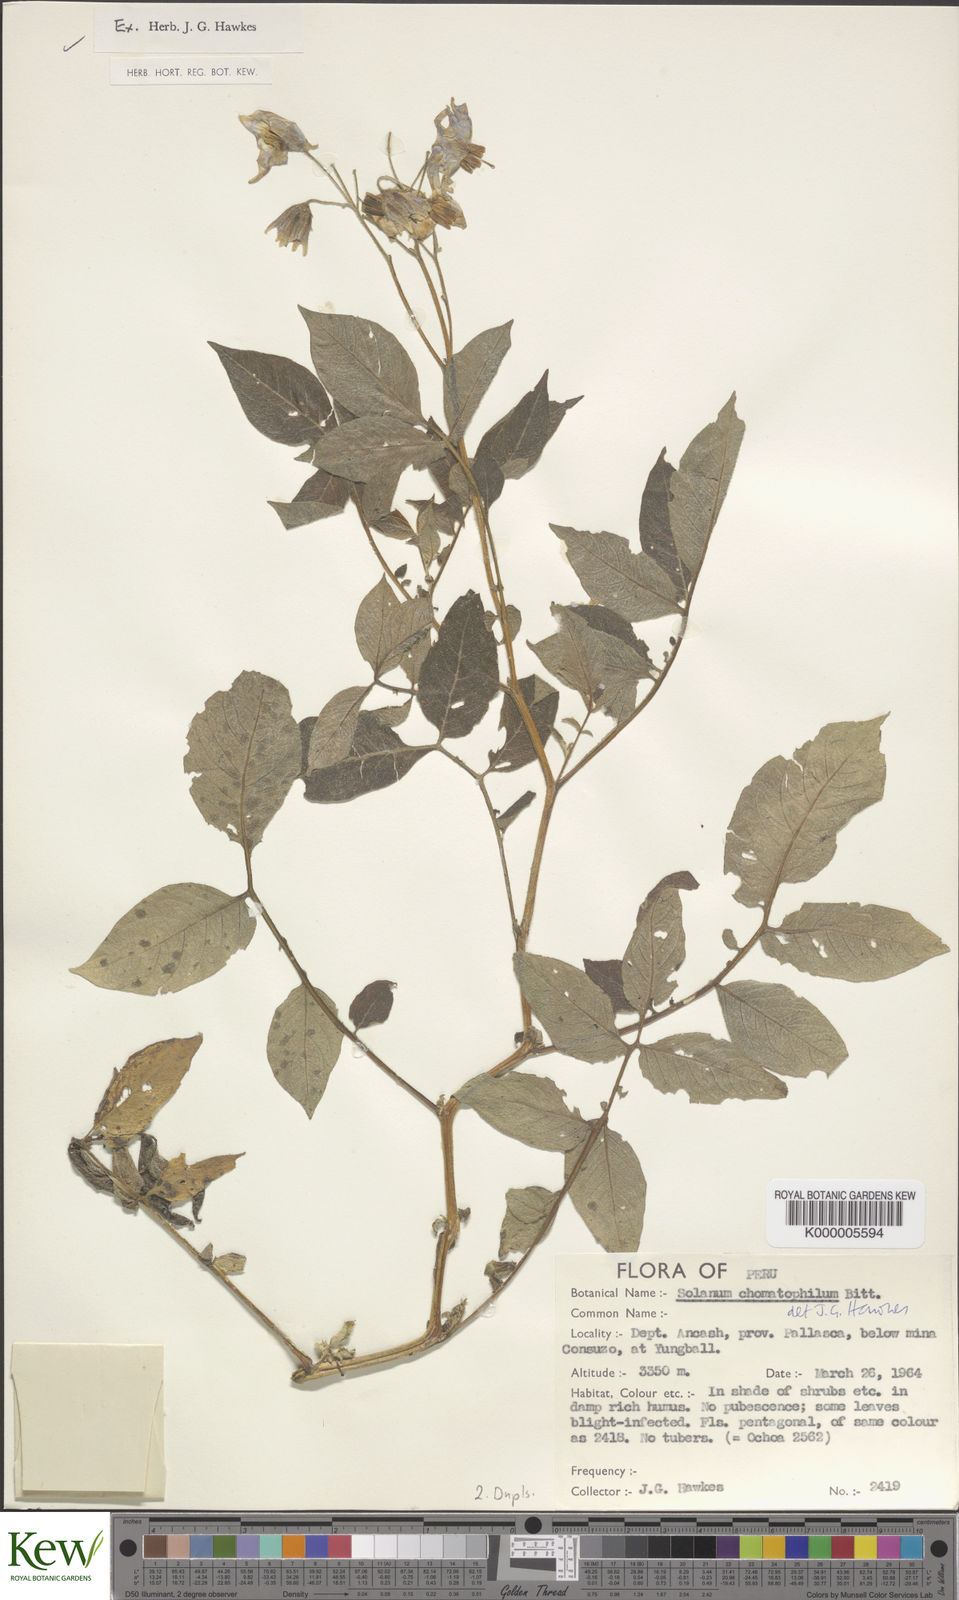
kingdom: Plantae
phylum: Tracheophyta
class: Magnoliopsida
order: Solanales
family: Solanaceae
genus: Solanum
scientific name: Solanum chomatophilum
